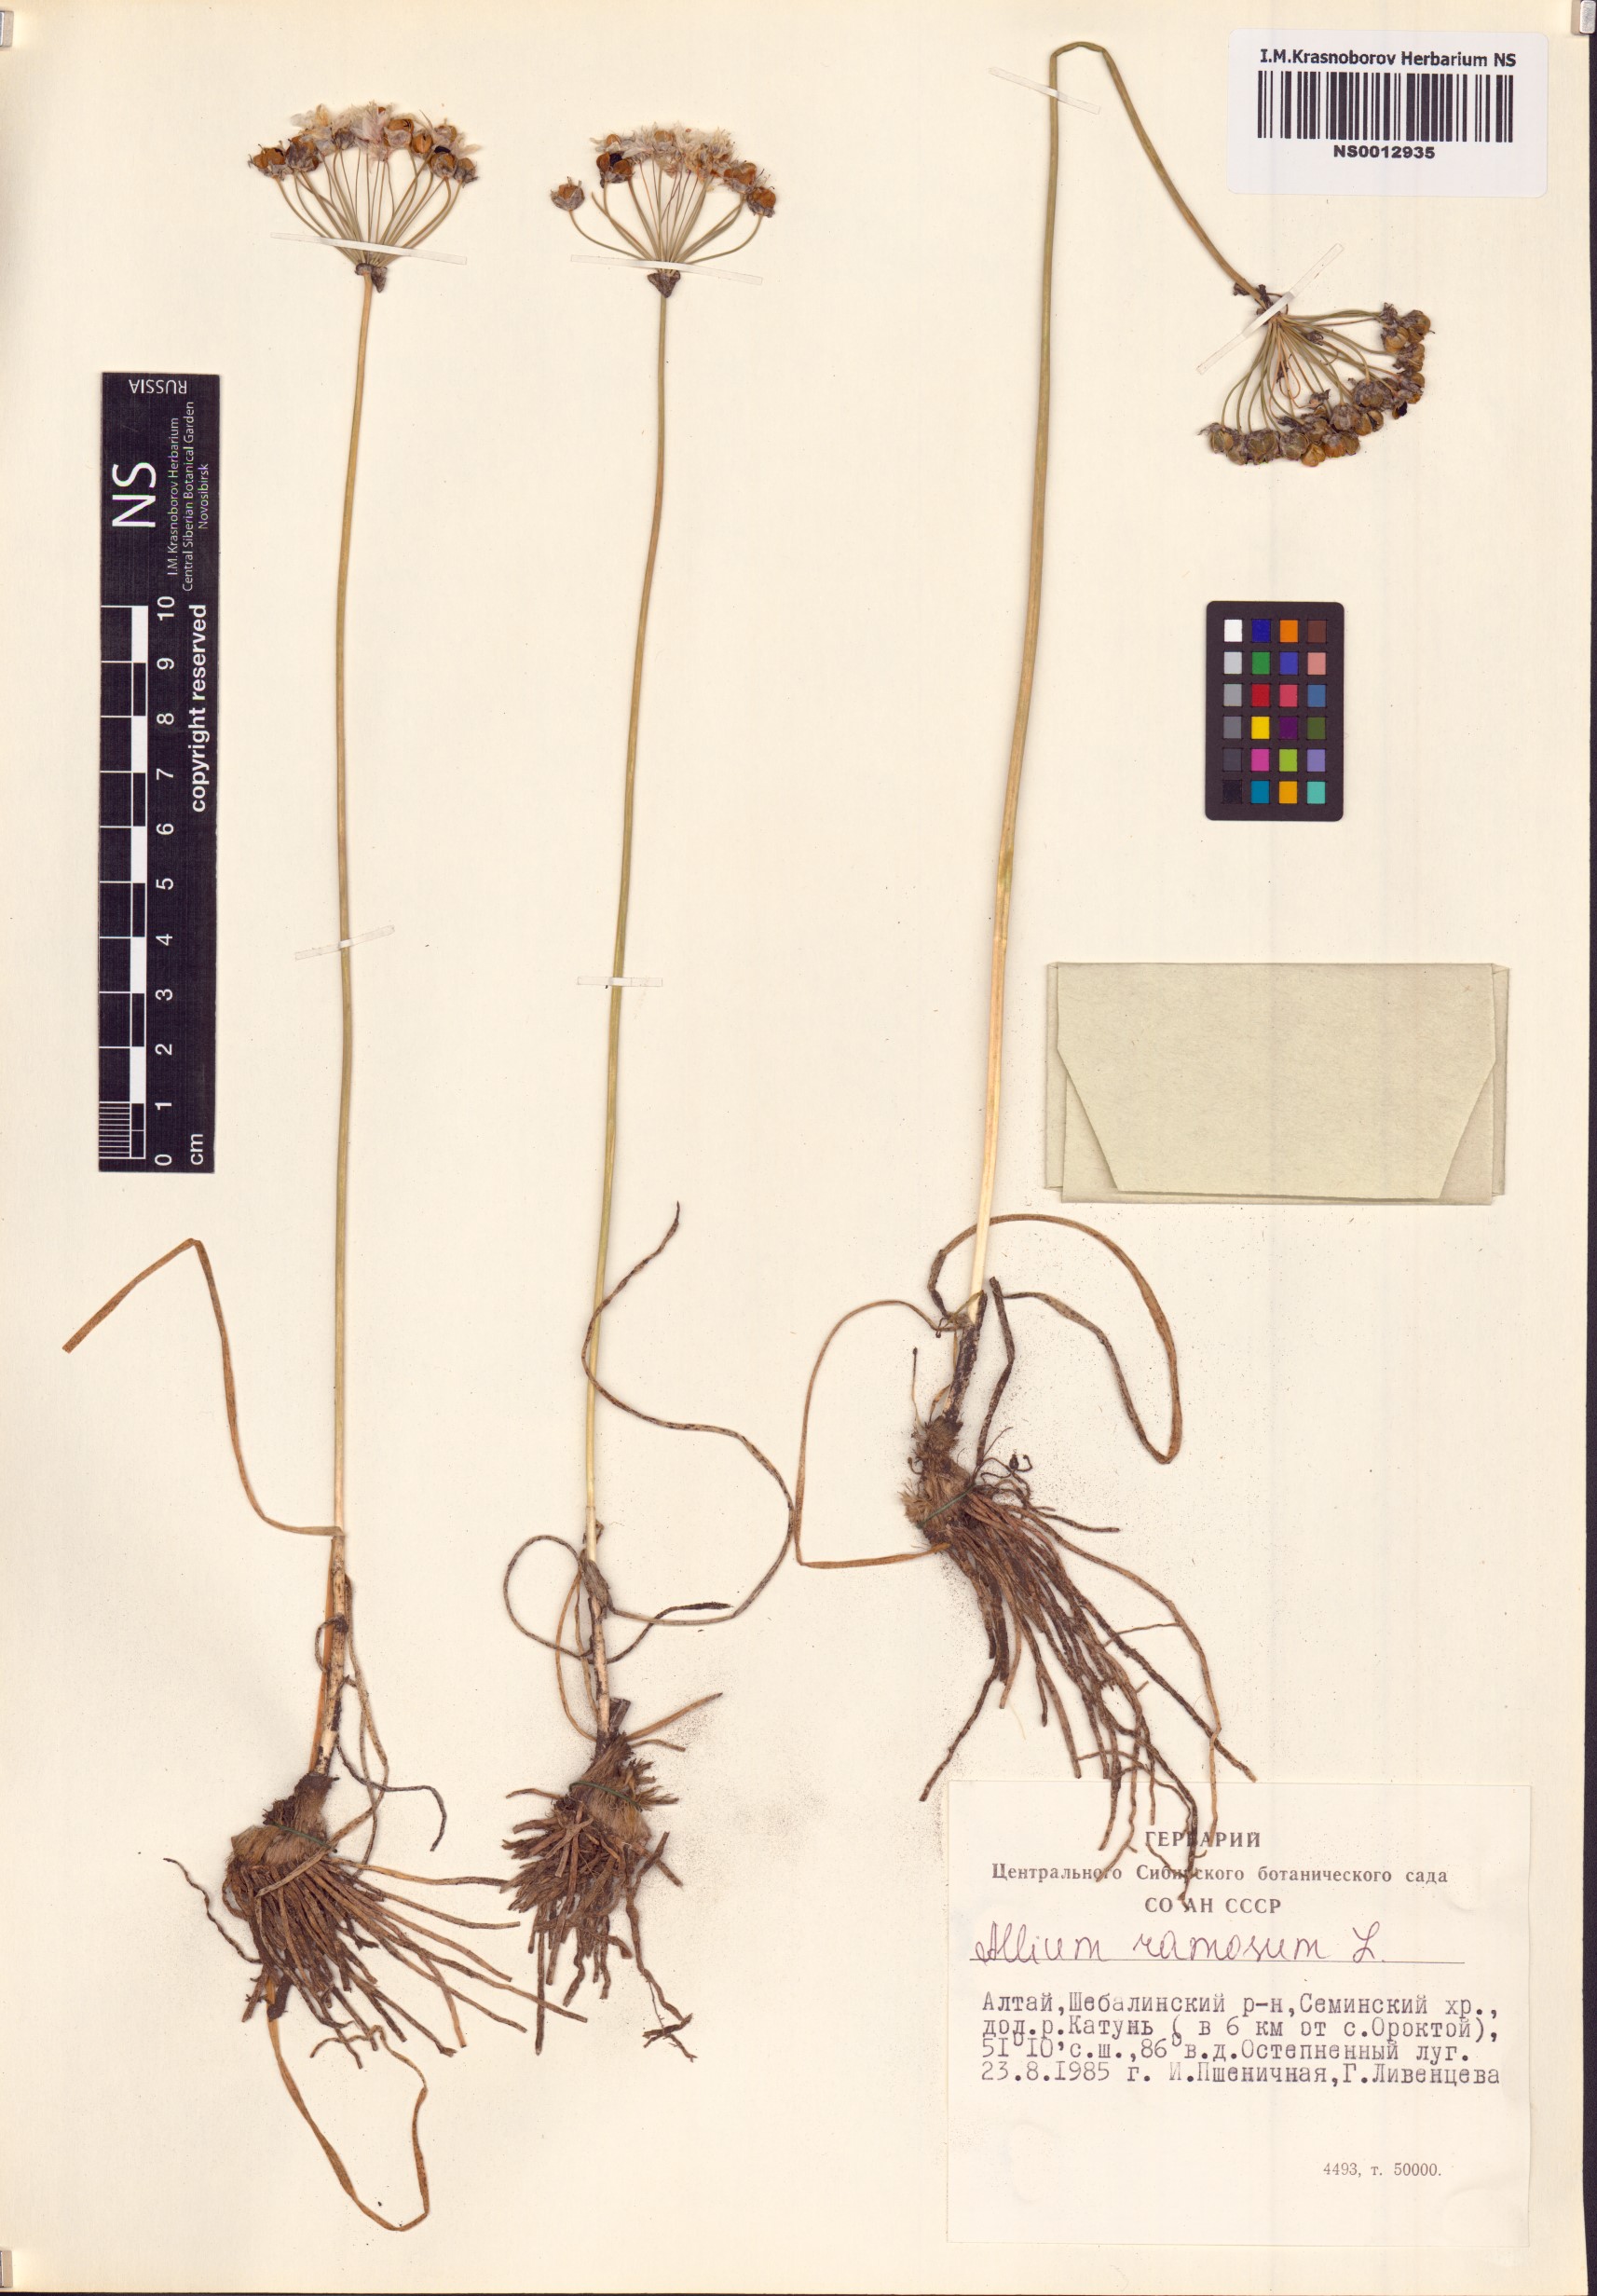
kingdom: Plantae
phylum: Tracheophyta
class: Liliopsida
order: Asparagales
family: Amaryllidaceae
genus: Allium
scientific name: Allium ramosum
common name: Fragrant garlic
